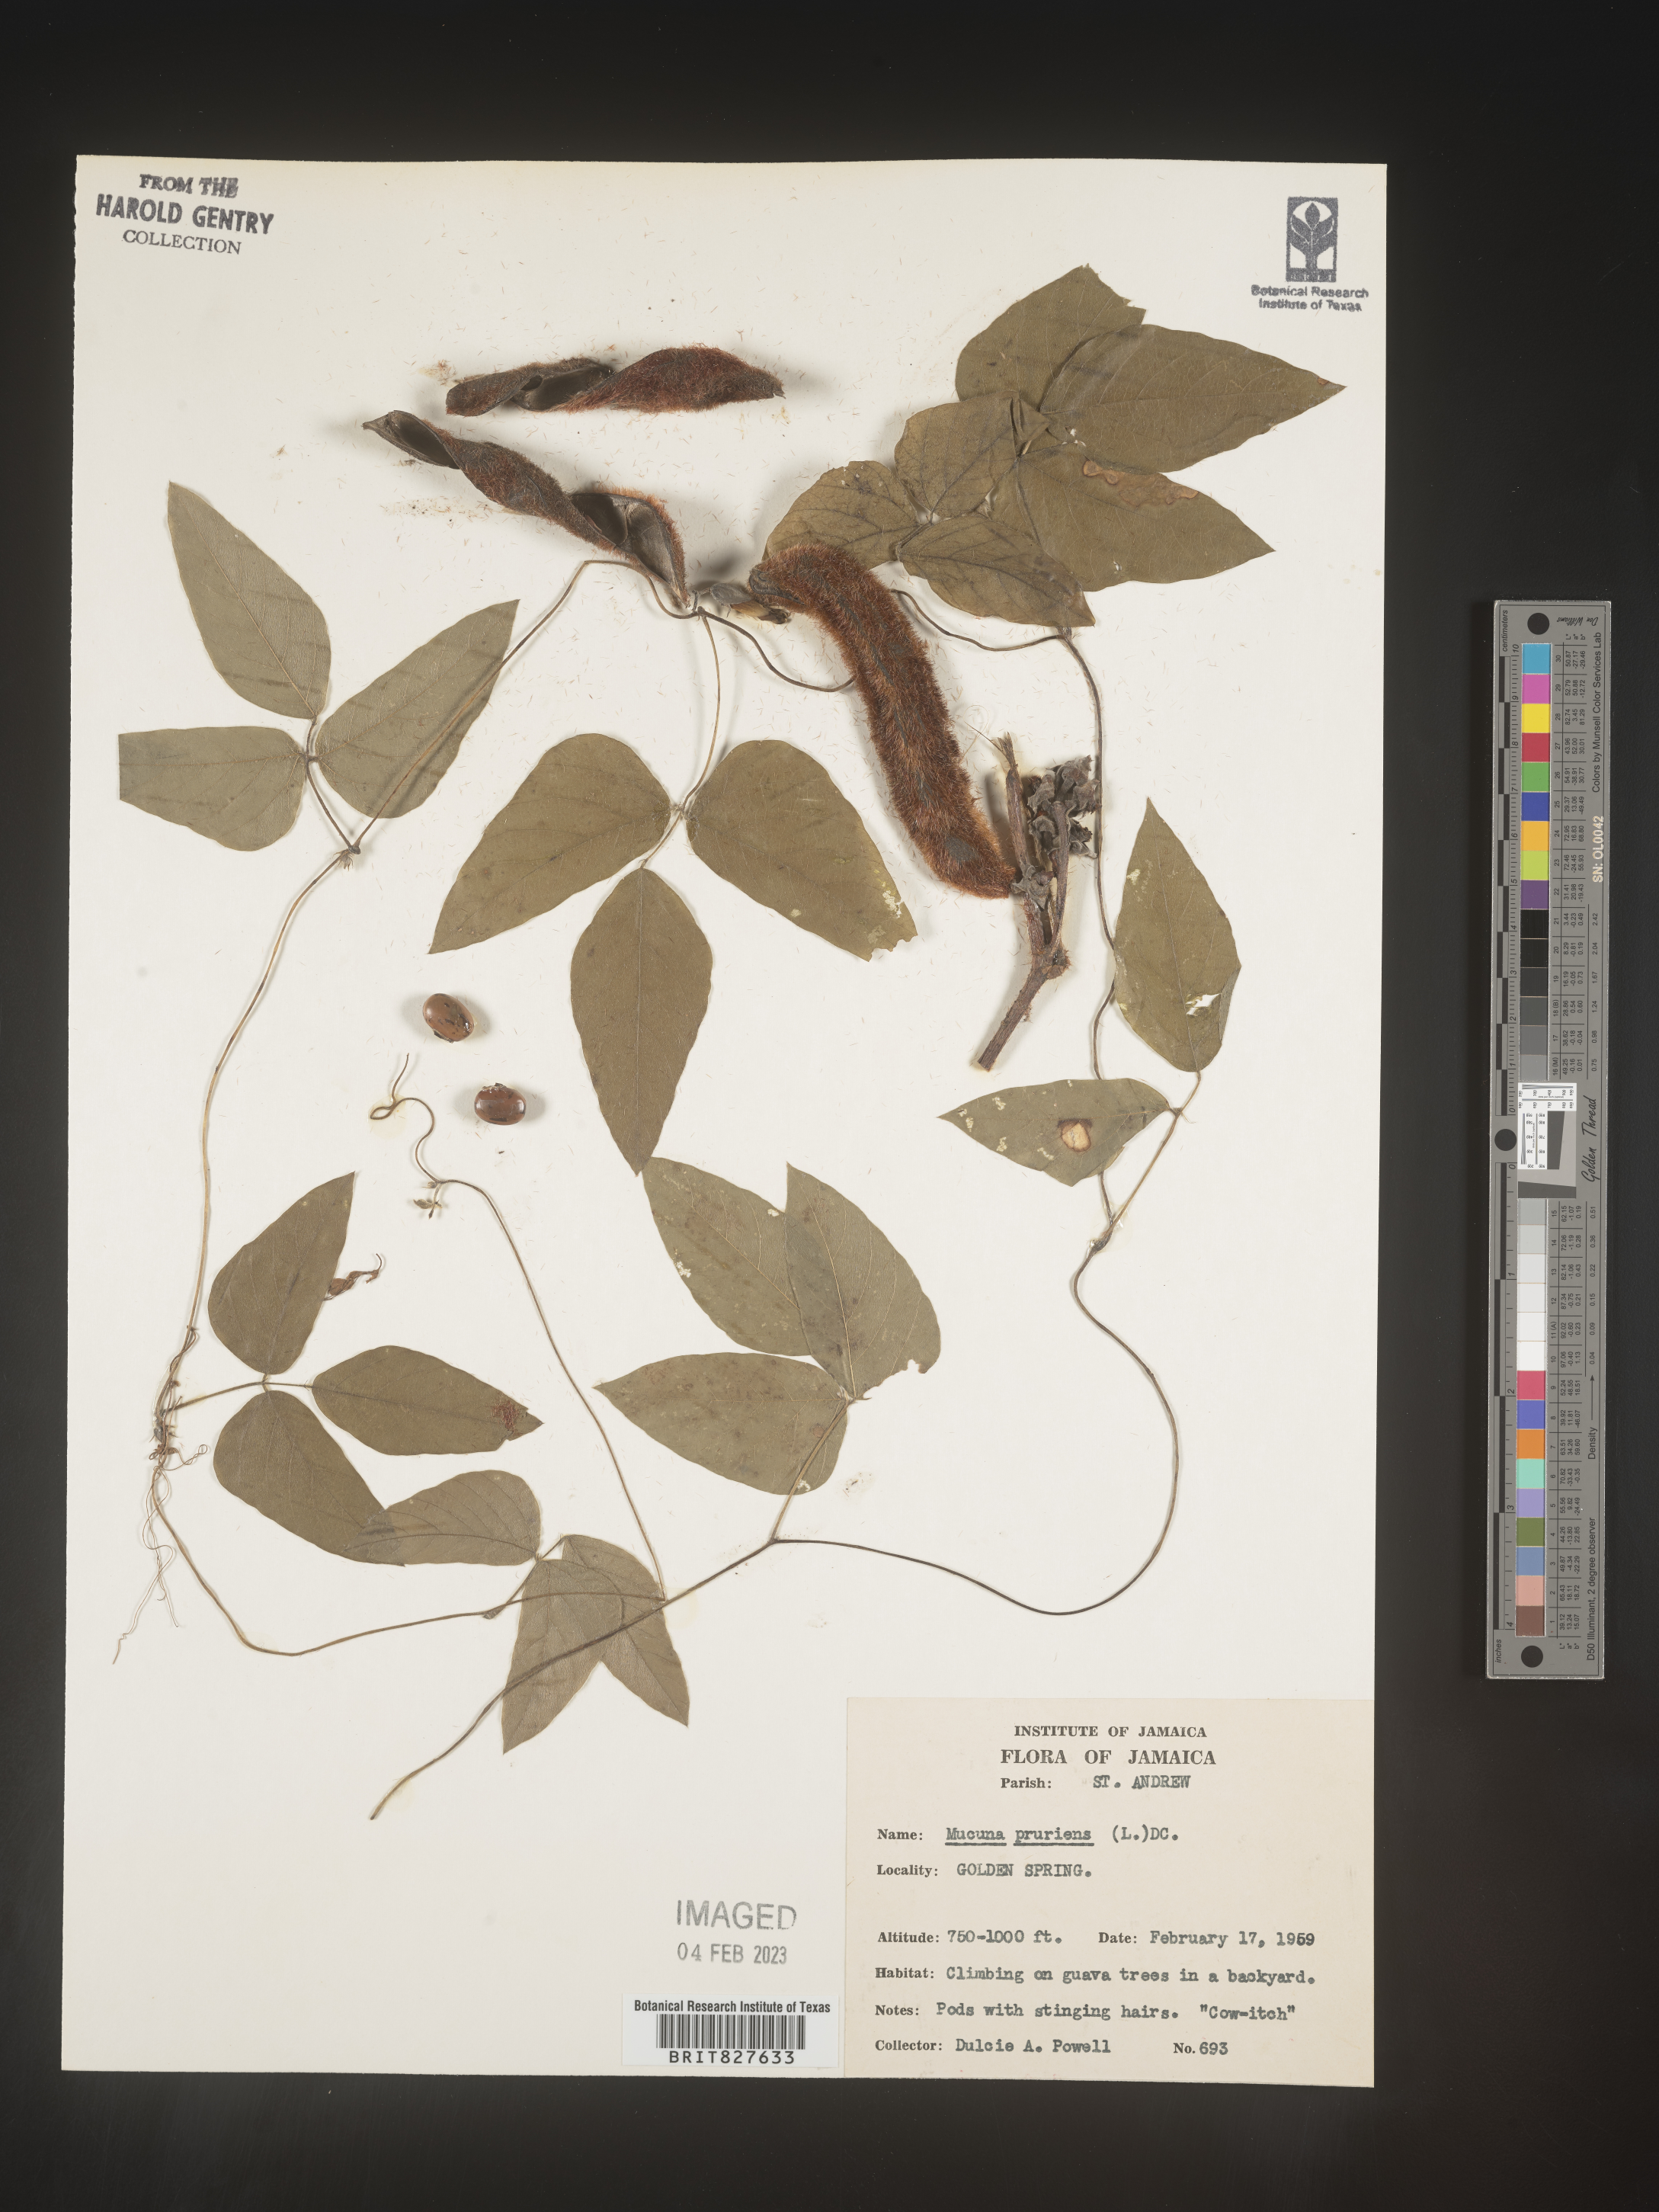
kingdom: Plantae
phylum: Tracheophyta
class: Magnoliopsida
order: Fabales
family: Fabaceae
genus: Mucuna
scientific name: Mucuna
